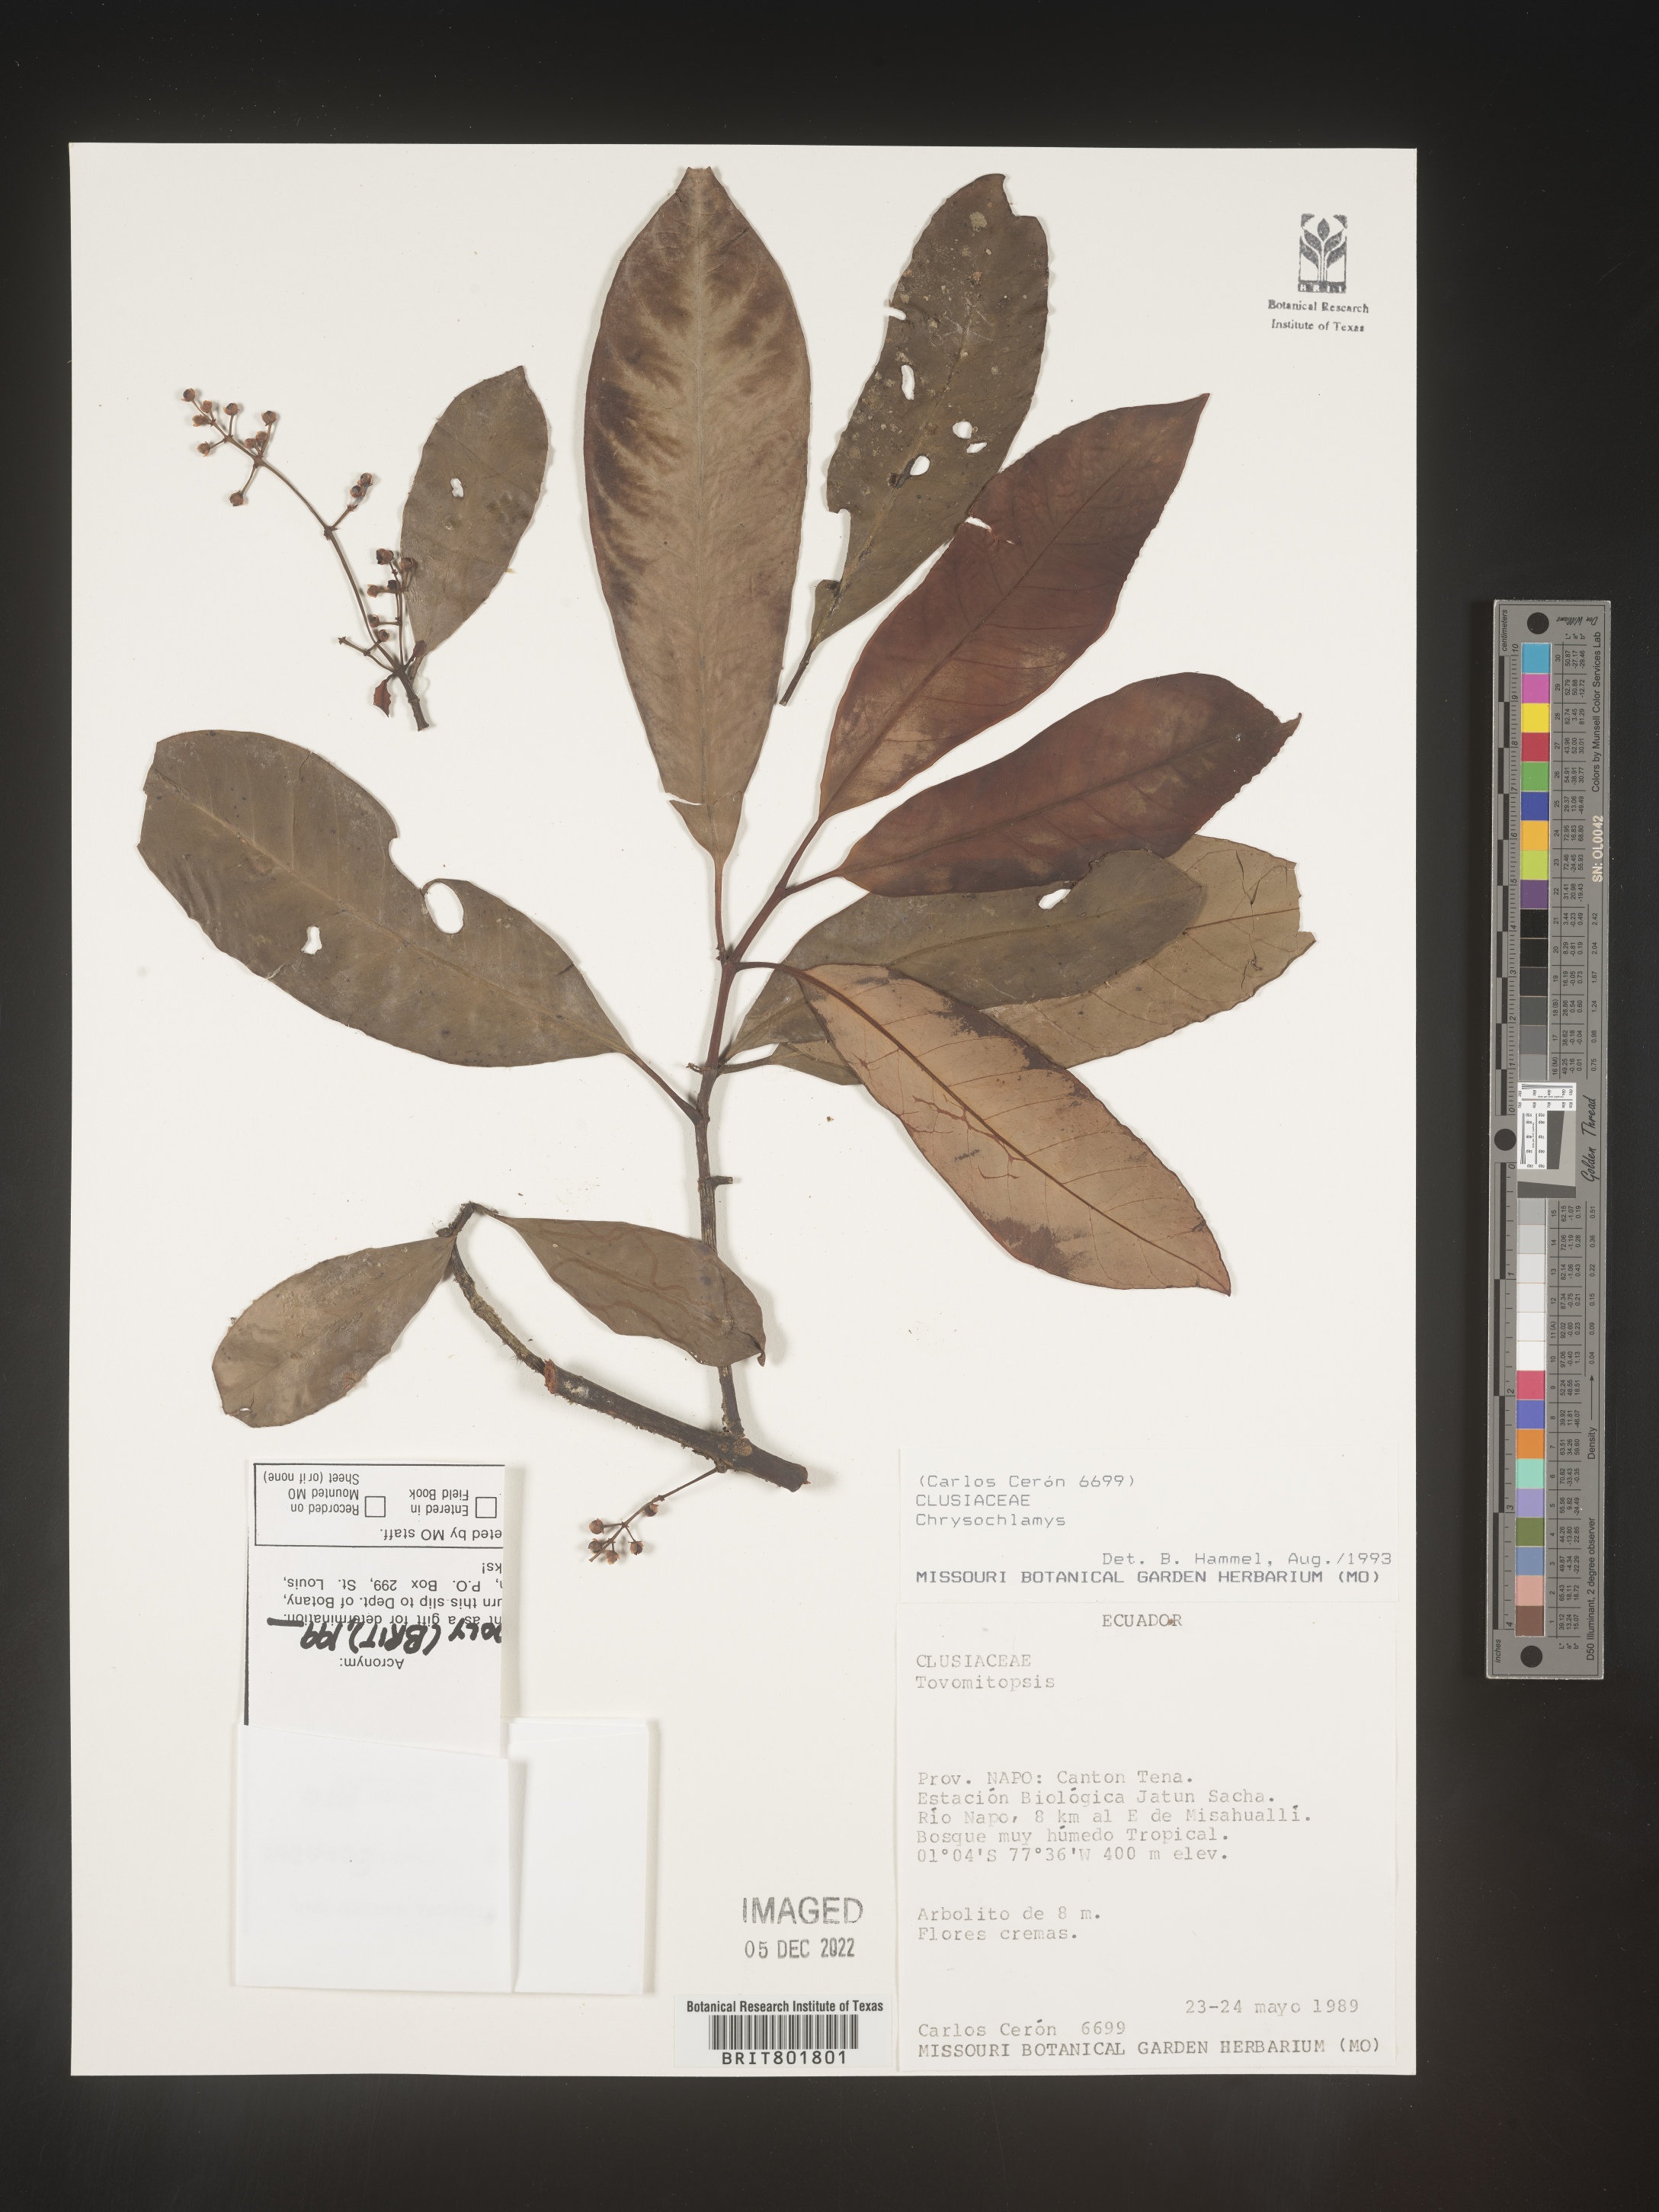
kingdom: Plantae
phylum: Tracheophyta
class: Magnoliopsida
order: Malpighiales
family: Clusiaceae
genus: Chrysochlamys
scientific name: Chrysochlamys
